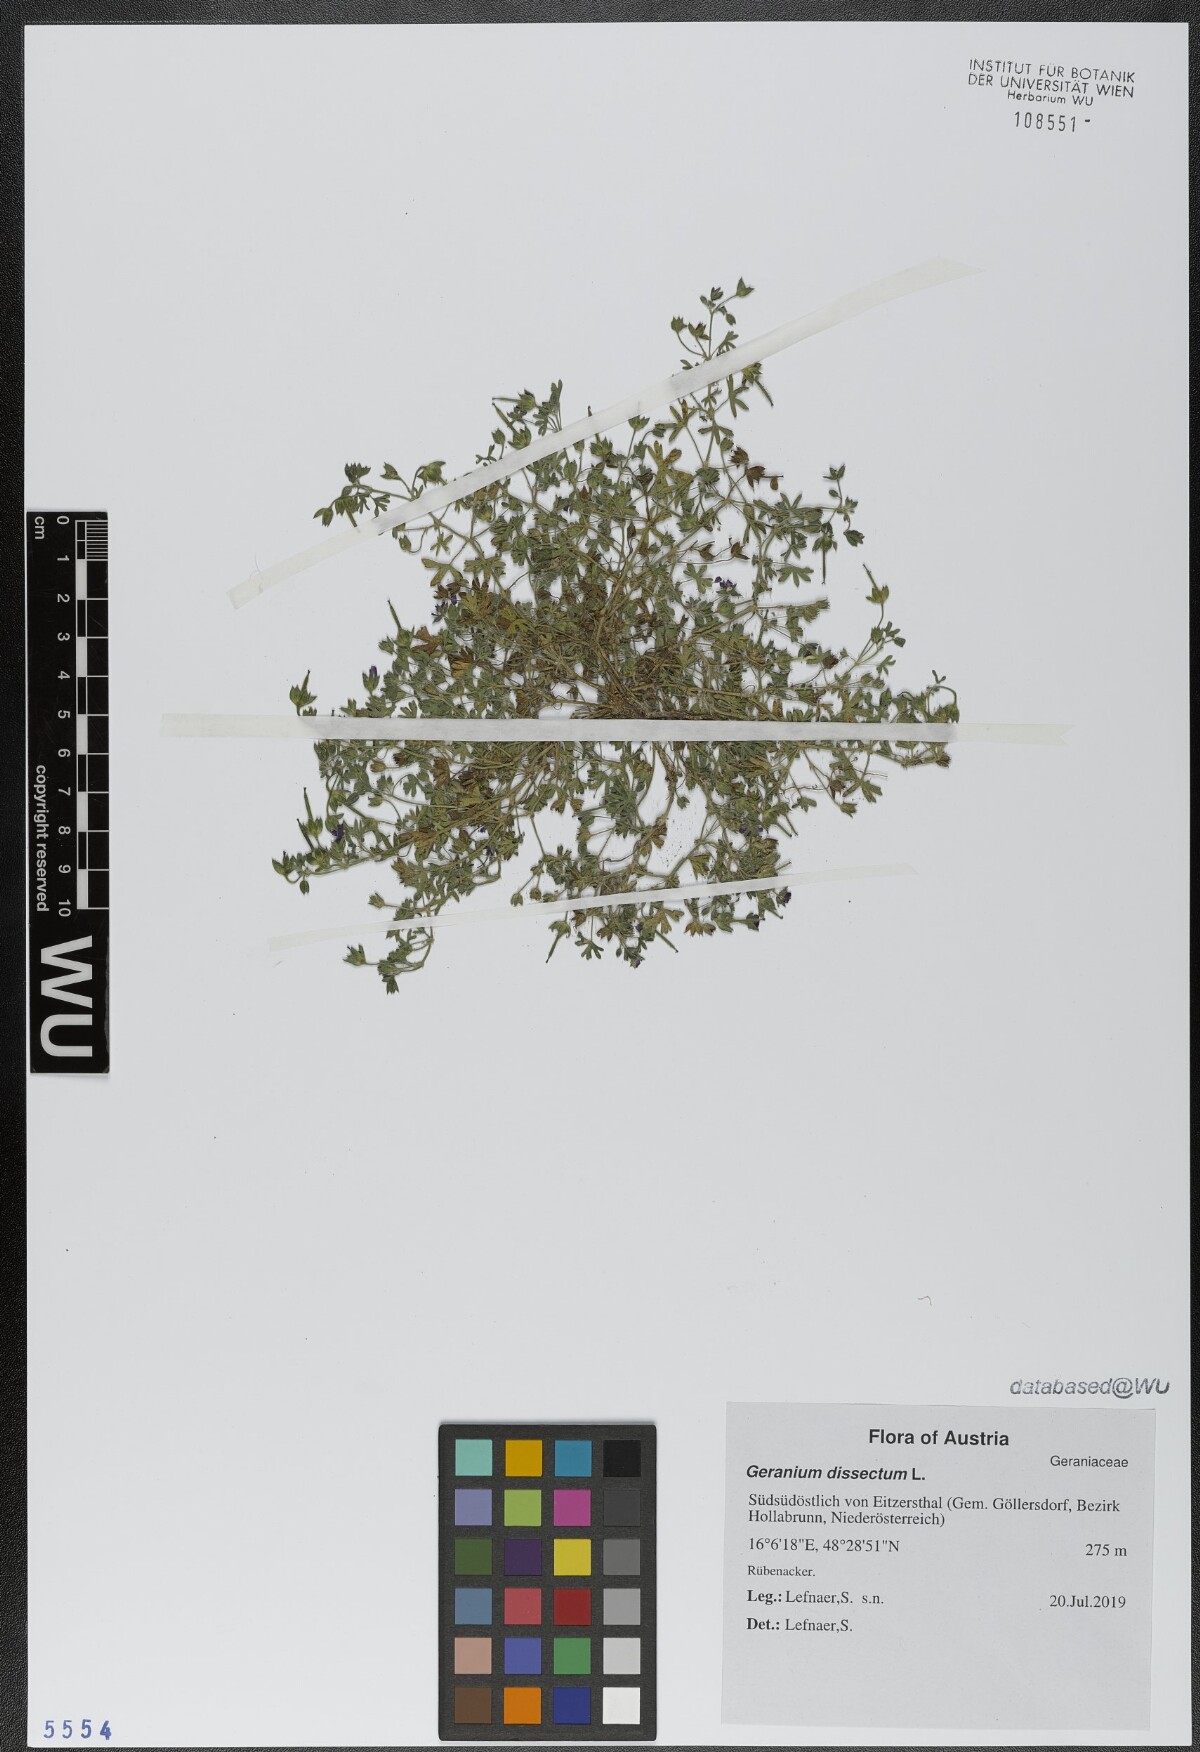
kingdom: Plantae
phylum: Tracheophyta
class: Magnoliopsida
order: Geraniales
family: Geraniaceae
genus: Geranium
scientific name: Geranium dissectum
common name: Cut-leaved crane's-bill
